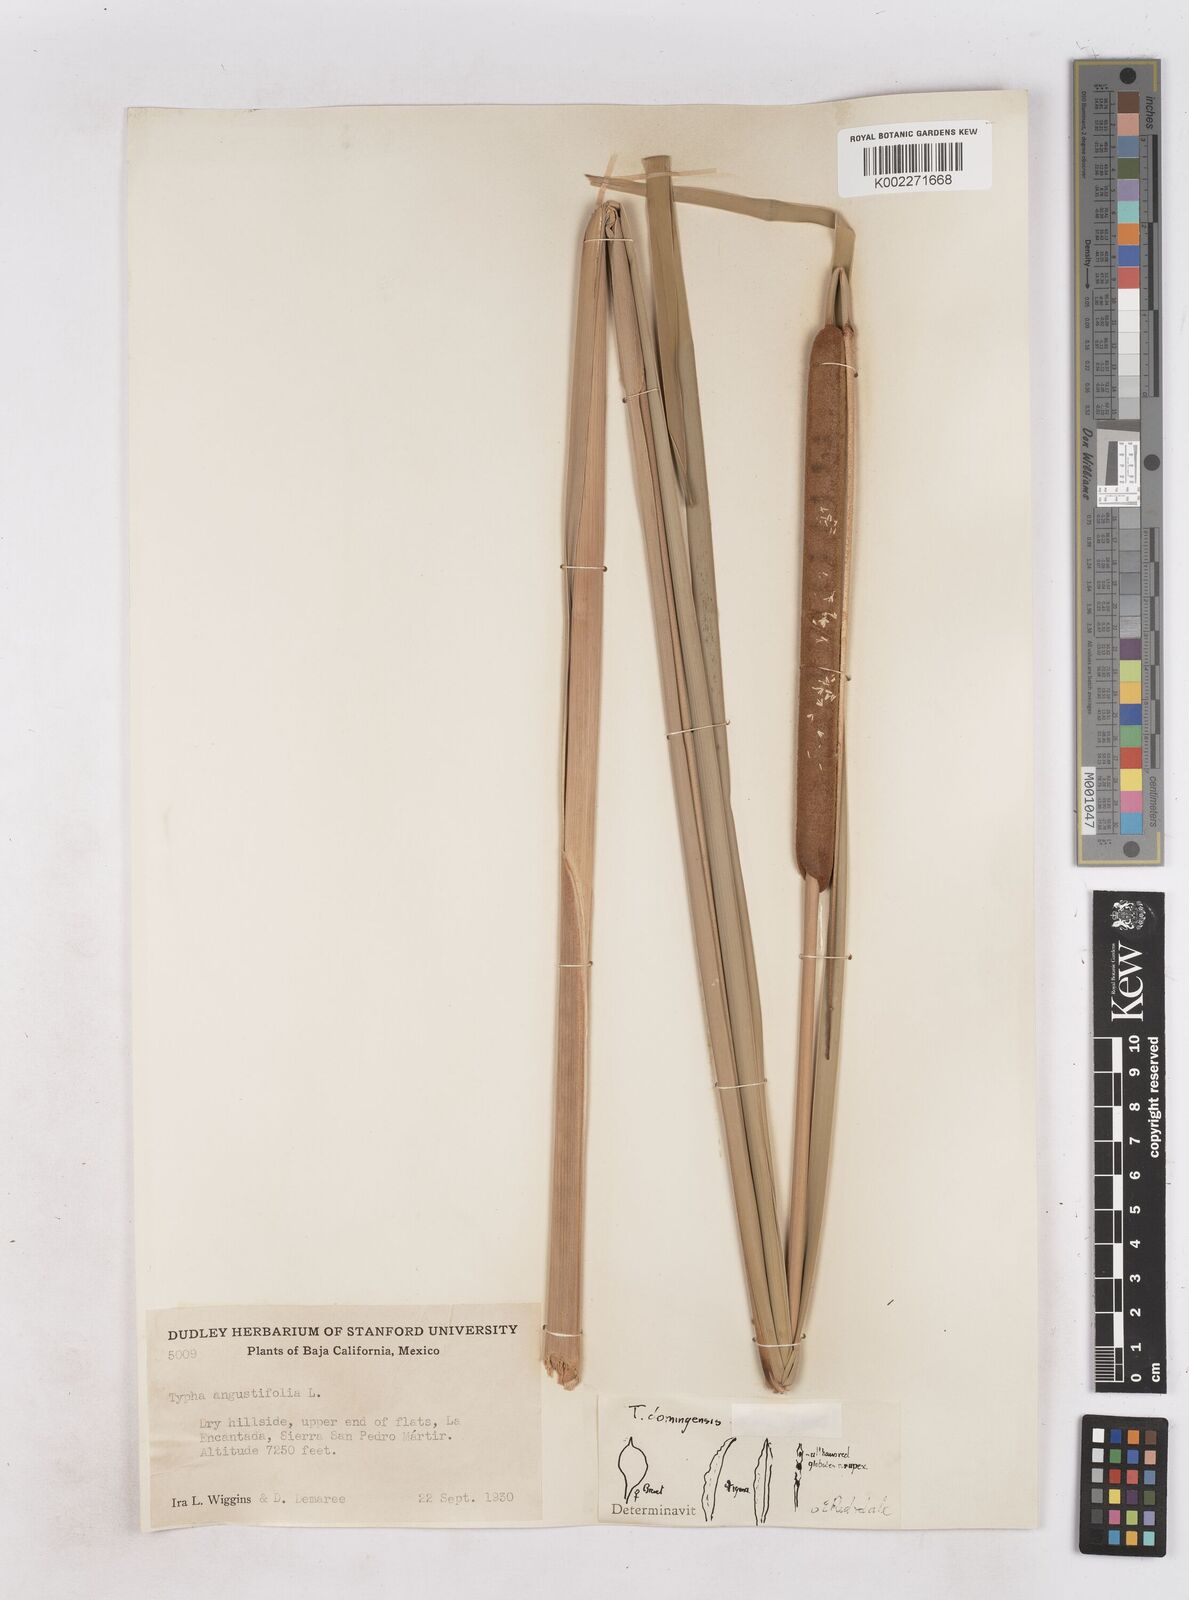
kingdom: Plantae
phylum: Tracheophyta
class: Liliopsida
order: Poales
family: Typhaceae
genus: Typha
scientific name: Typha domingensis
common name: Southern cattail
